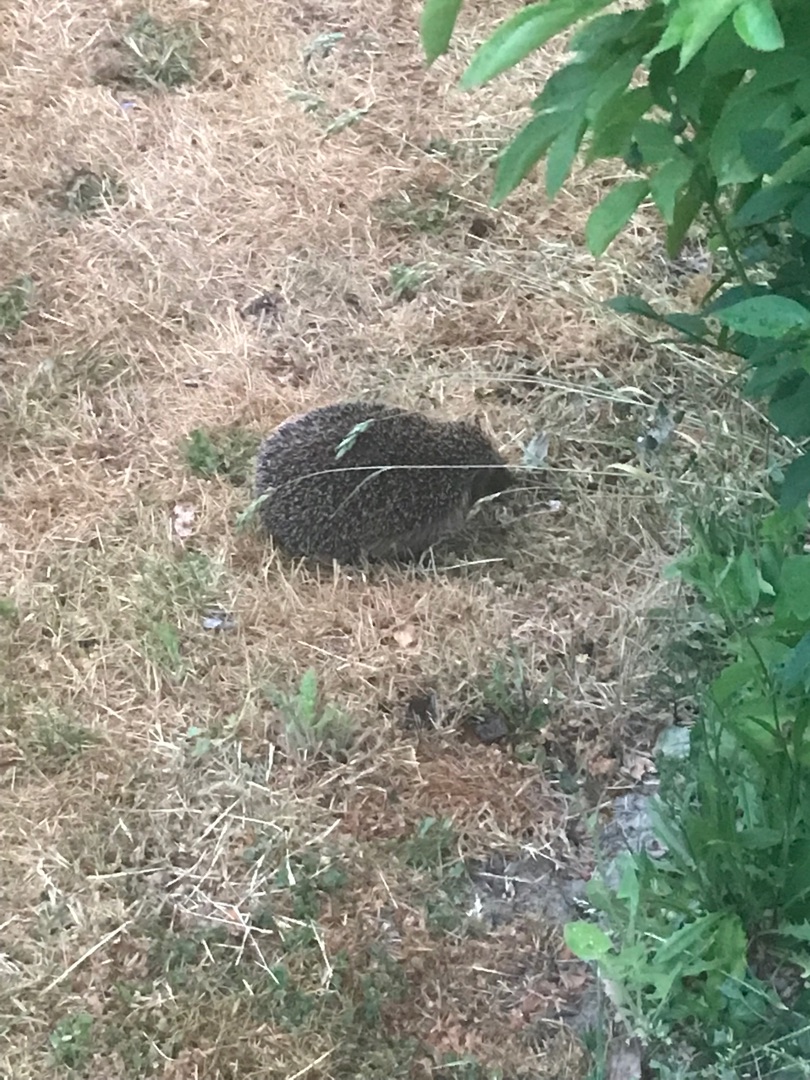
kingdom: Animalia
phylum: Chordata
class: Mammalia
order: Erinaceomorpha
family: Erinaceidae
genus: Erinaceus
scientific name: Erinaceus europaeus
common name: Pindsvin
